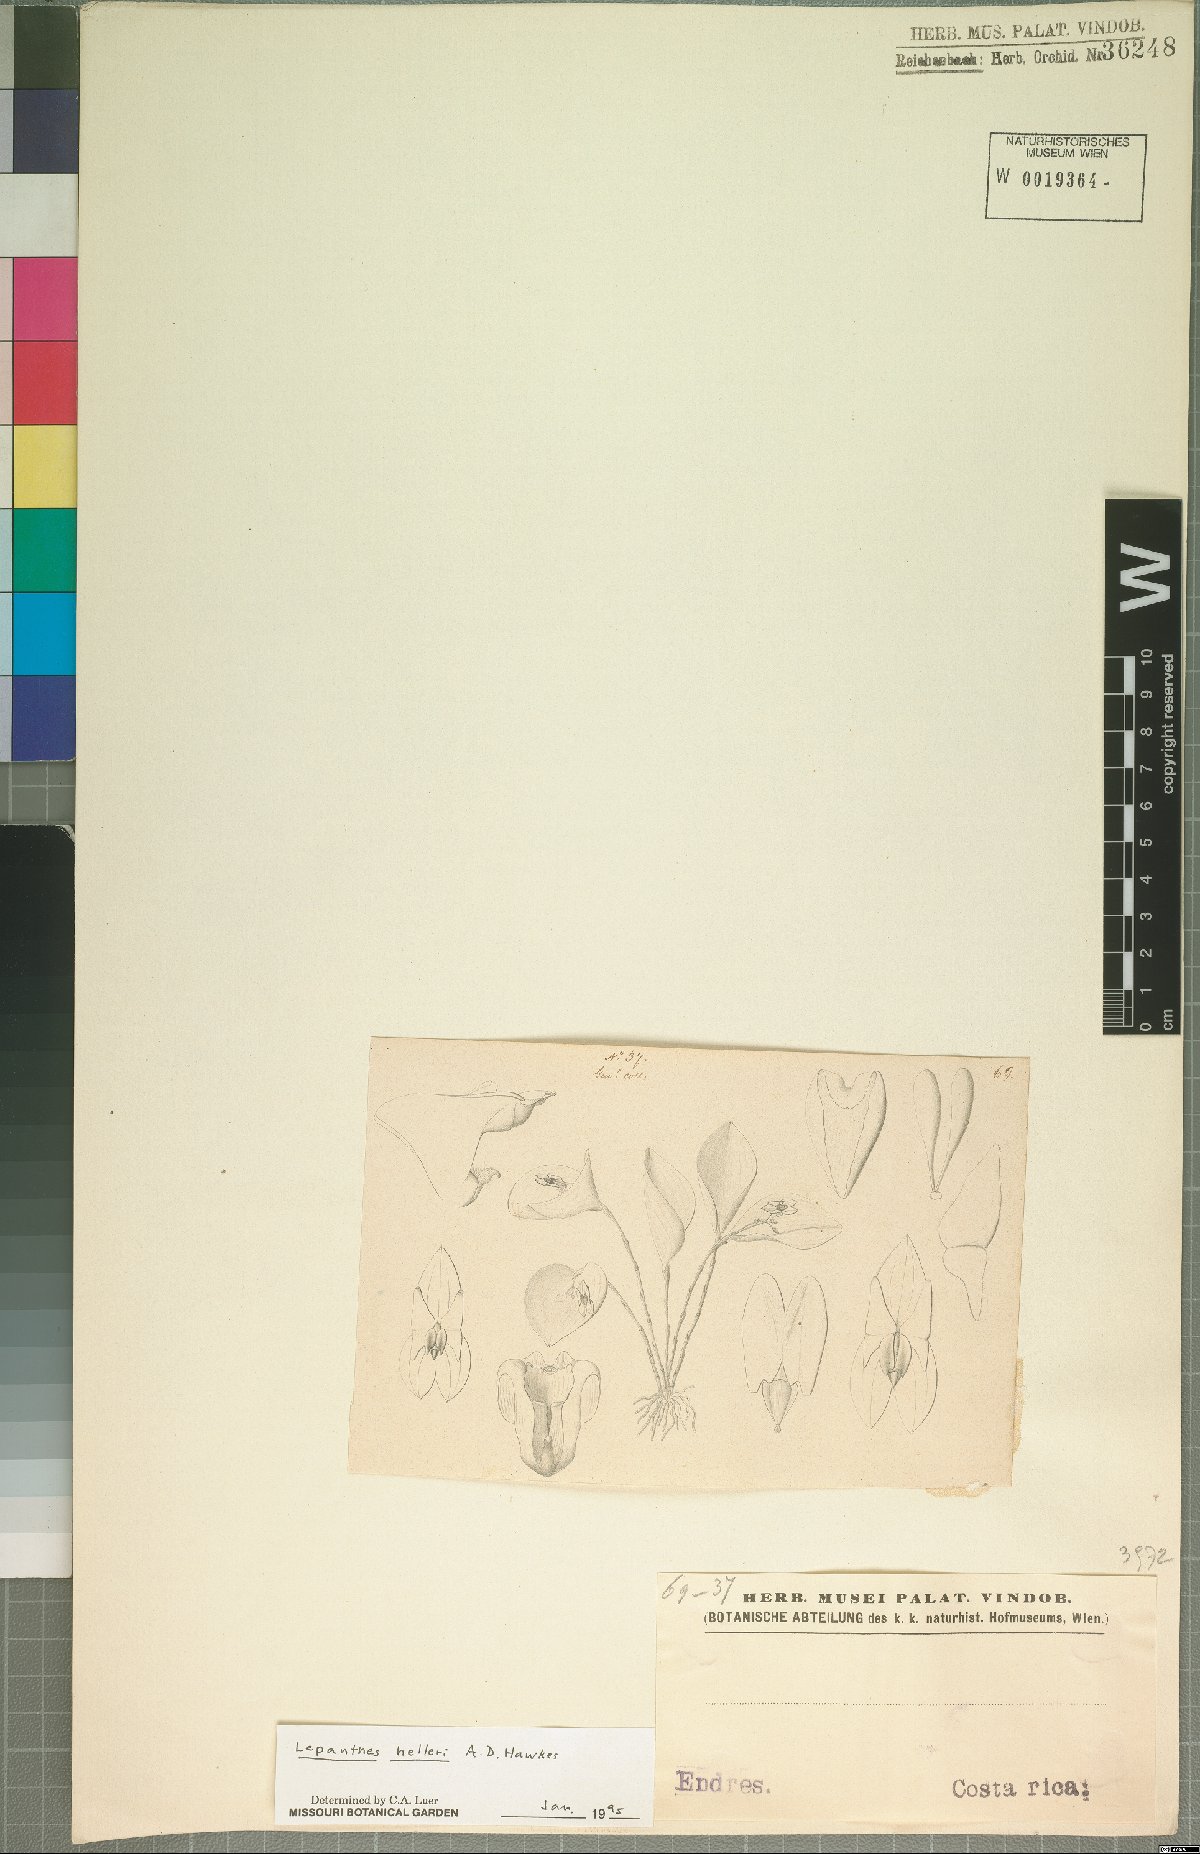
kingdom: Plantae
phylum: Tracheophyta
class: Liliopsida
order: Asparagales
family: Orchidaceae
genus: Lepanthes
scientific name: Lepanthes helleri
